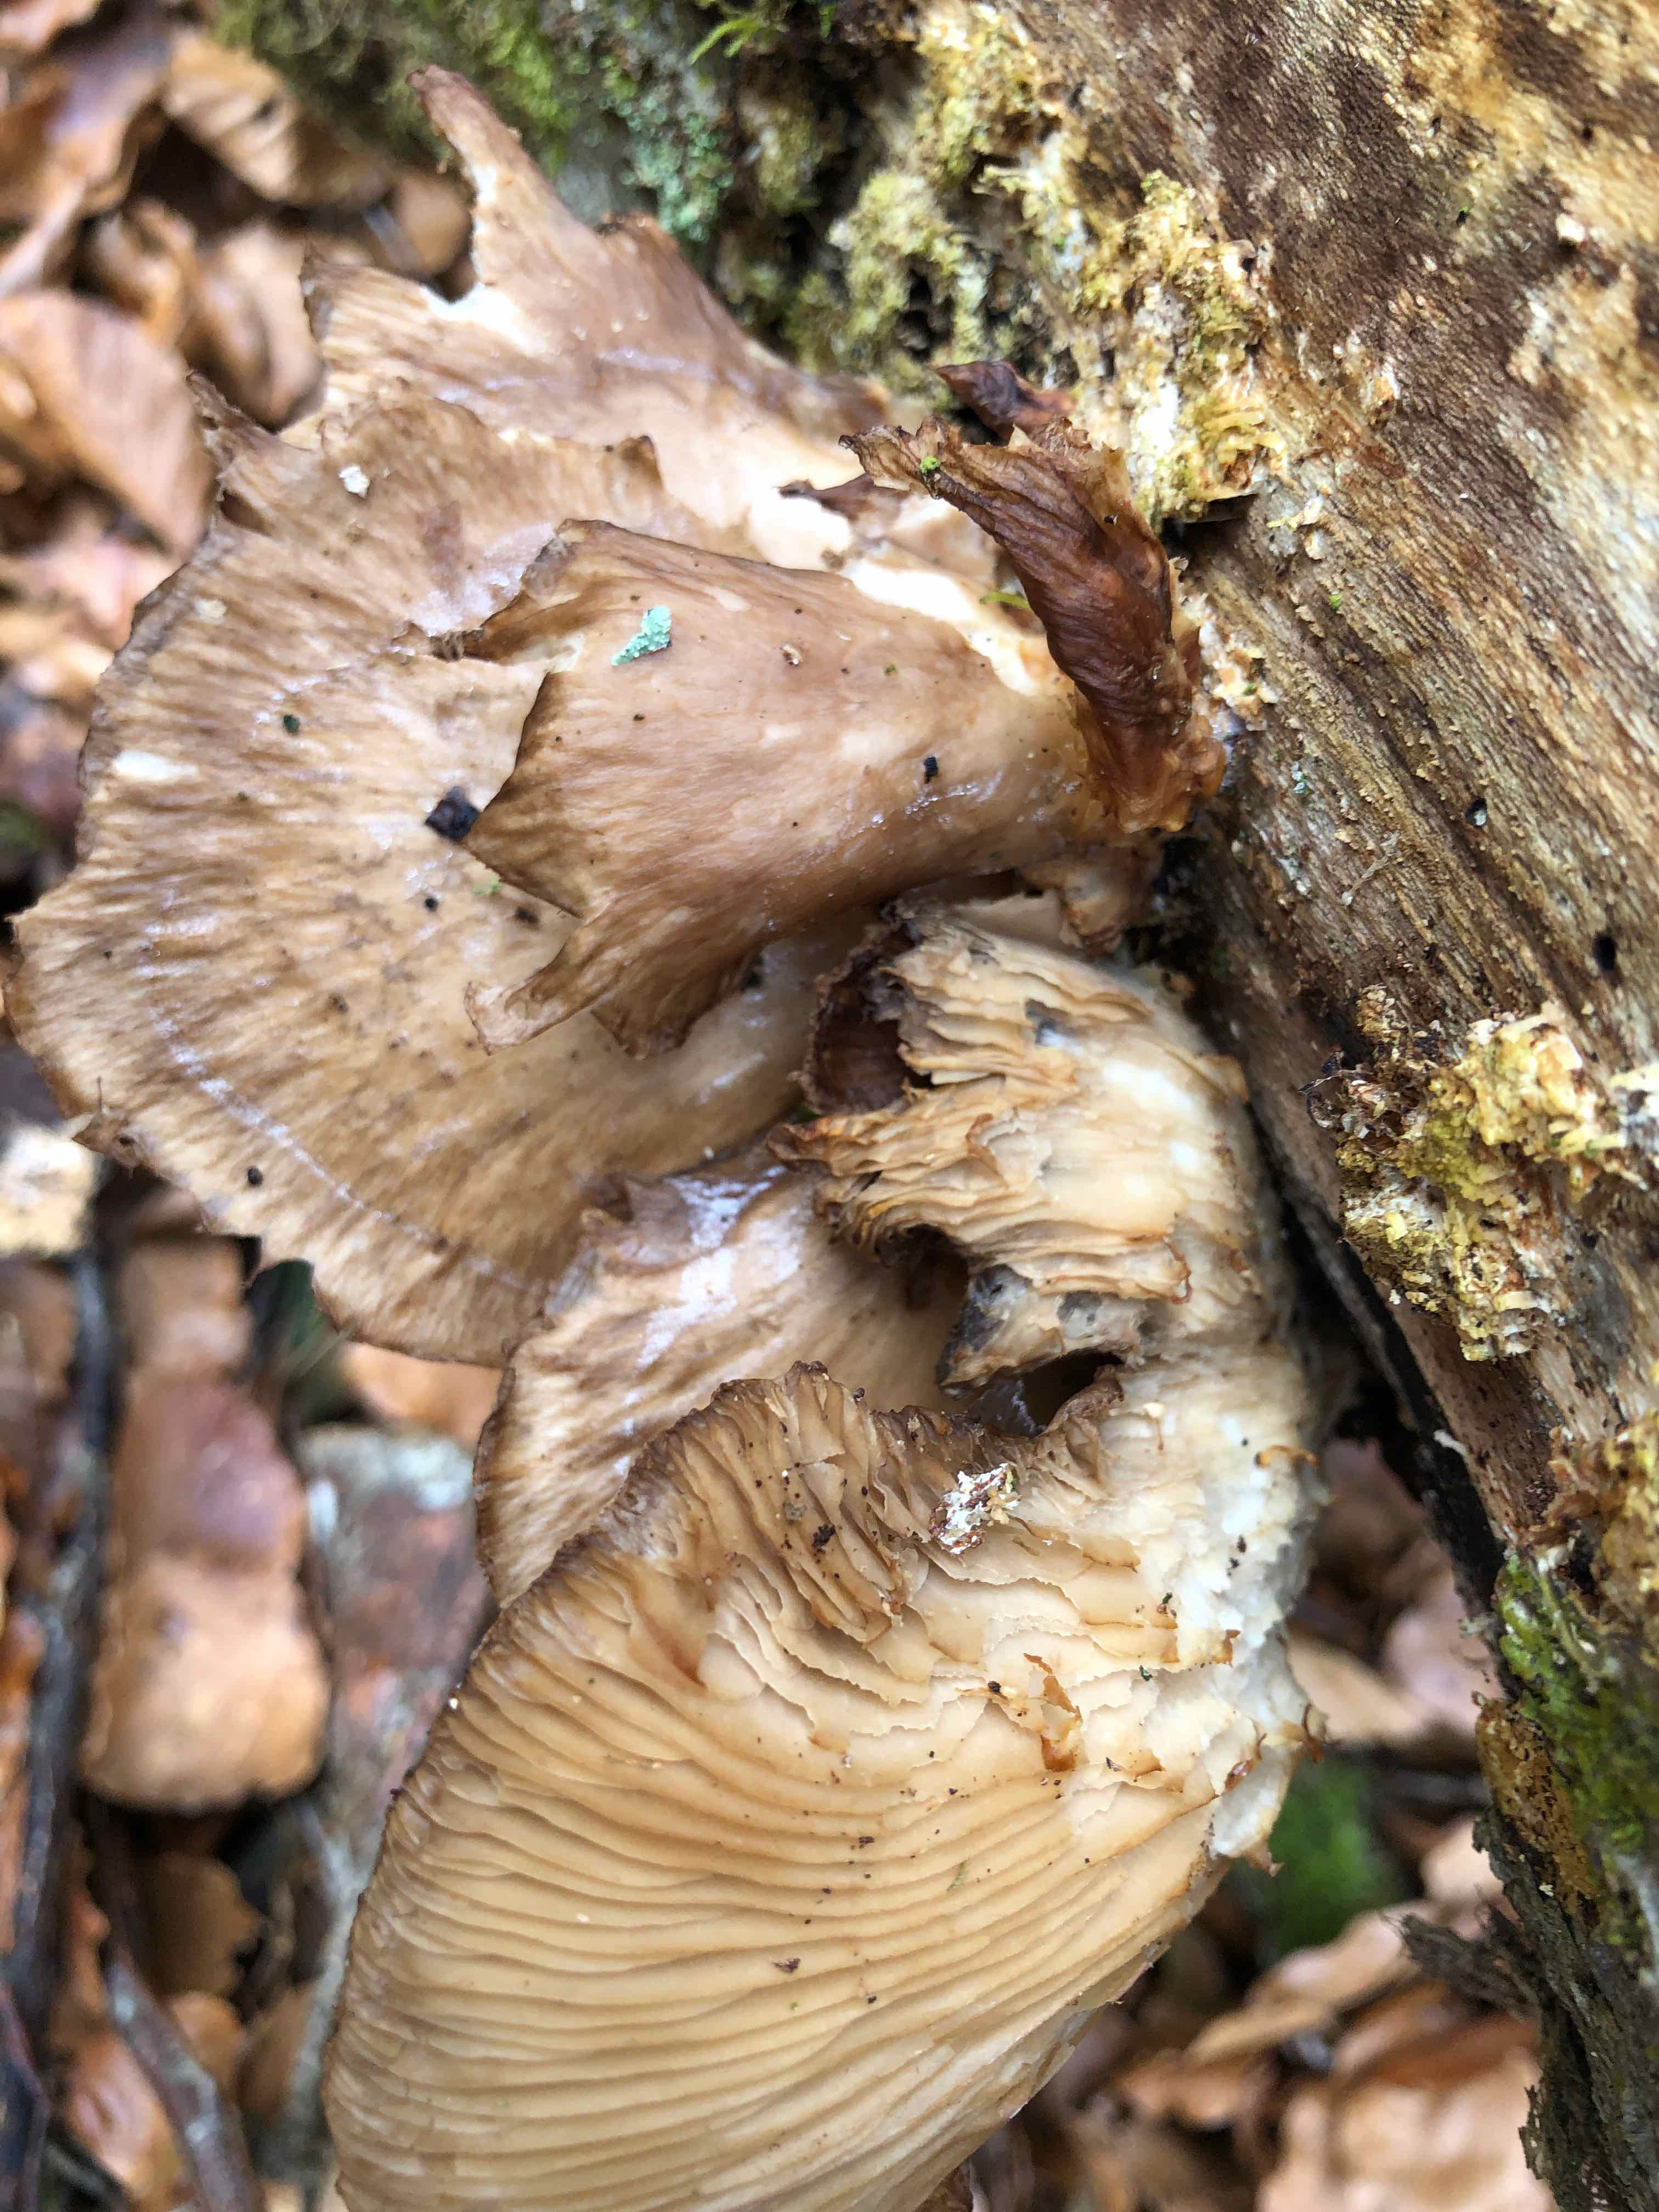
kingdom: Fungi
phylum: Basidiomycota
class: Agaricomycetes
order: Agaricales
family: Pleurotaceae
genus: Pleurotus
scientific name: Pleurotus ostreatus
